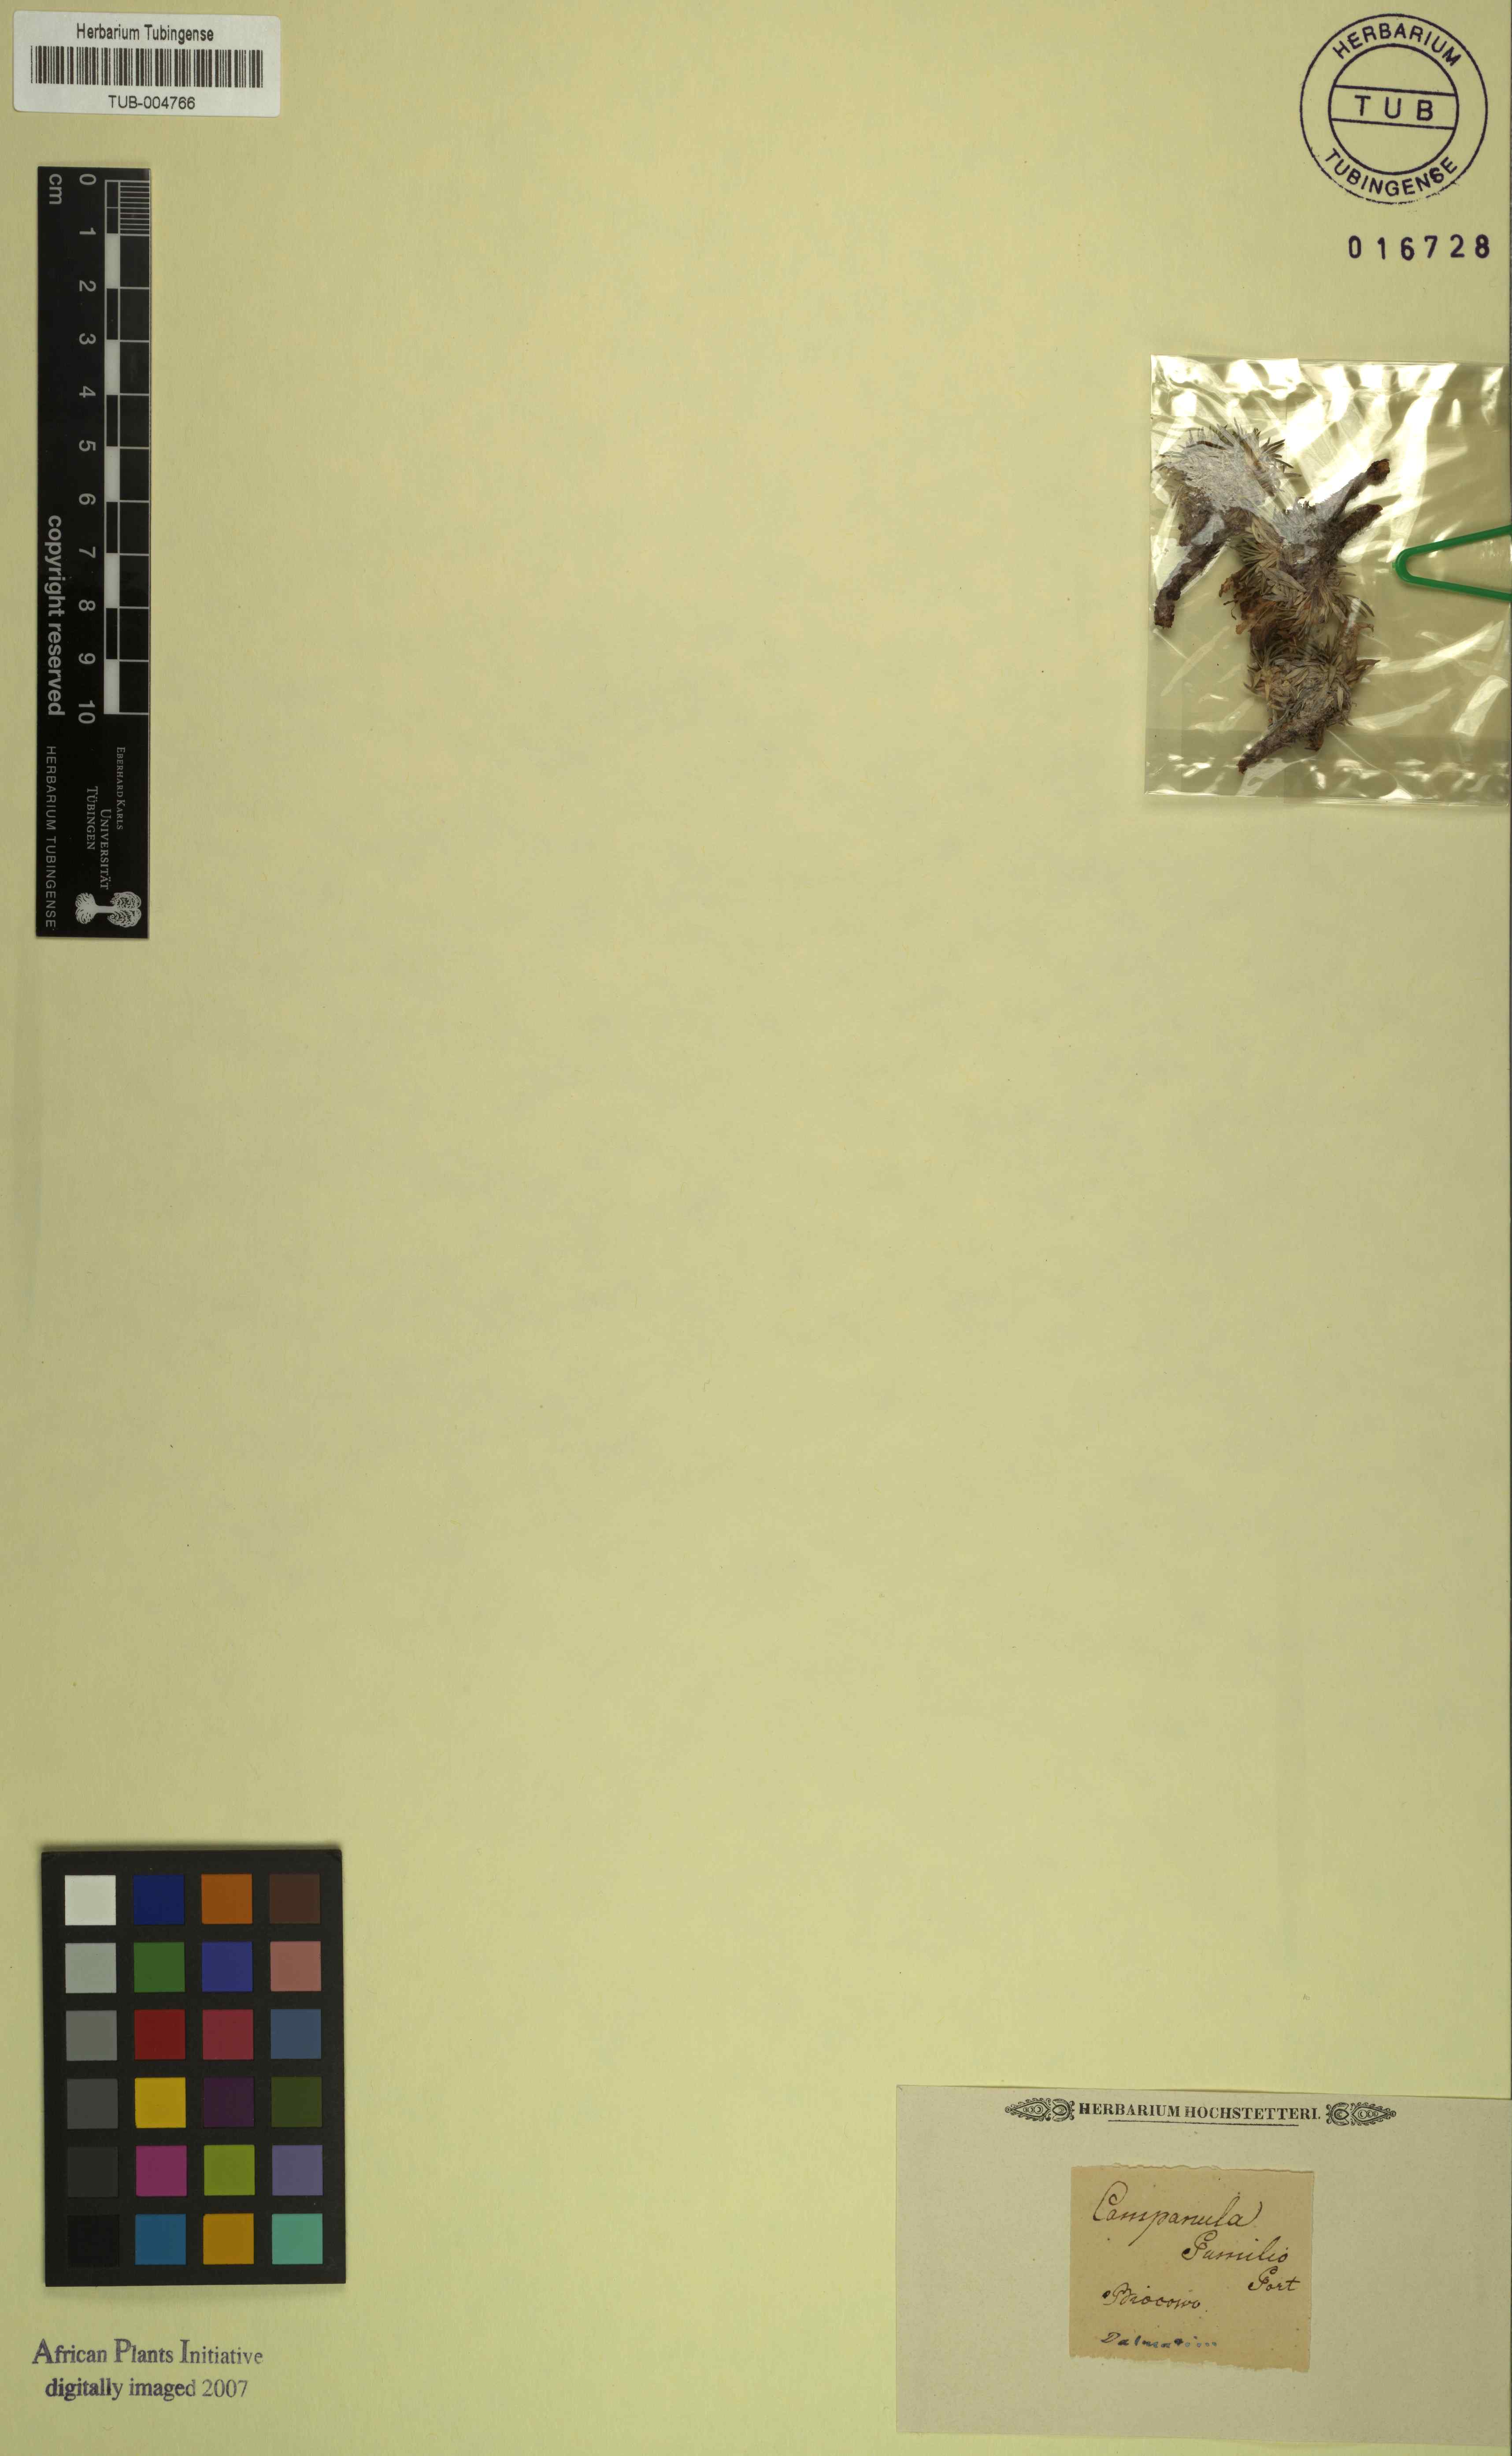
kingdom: Plantae
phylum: Tracheophyta
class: Magnoliopsida
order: Asterales
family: Campanulaceae
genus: Edraianthus
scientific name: Edraianthus pumilio
